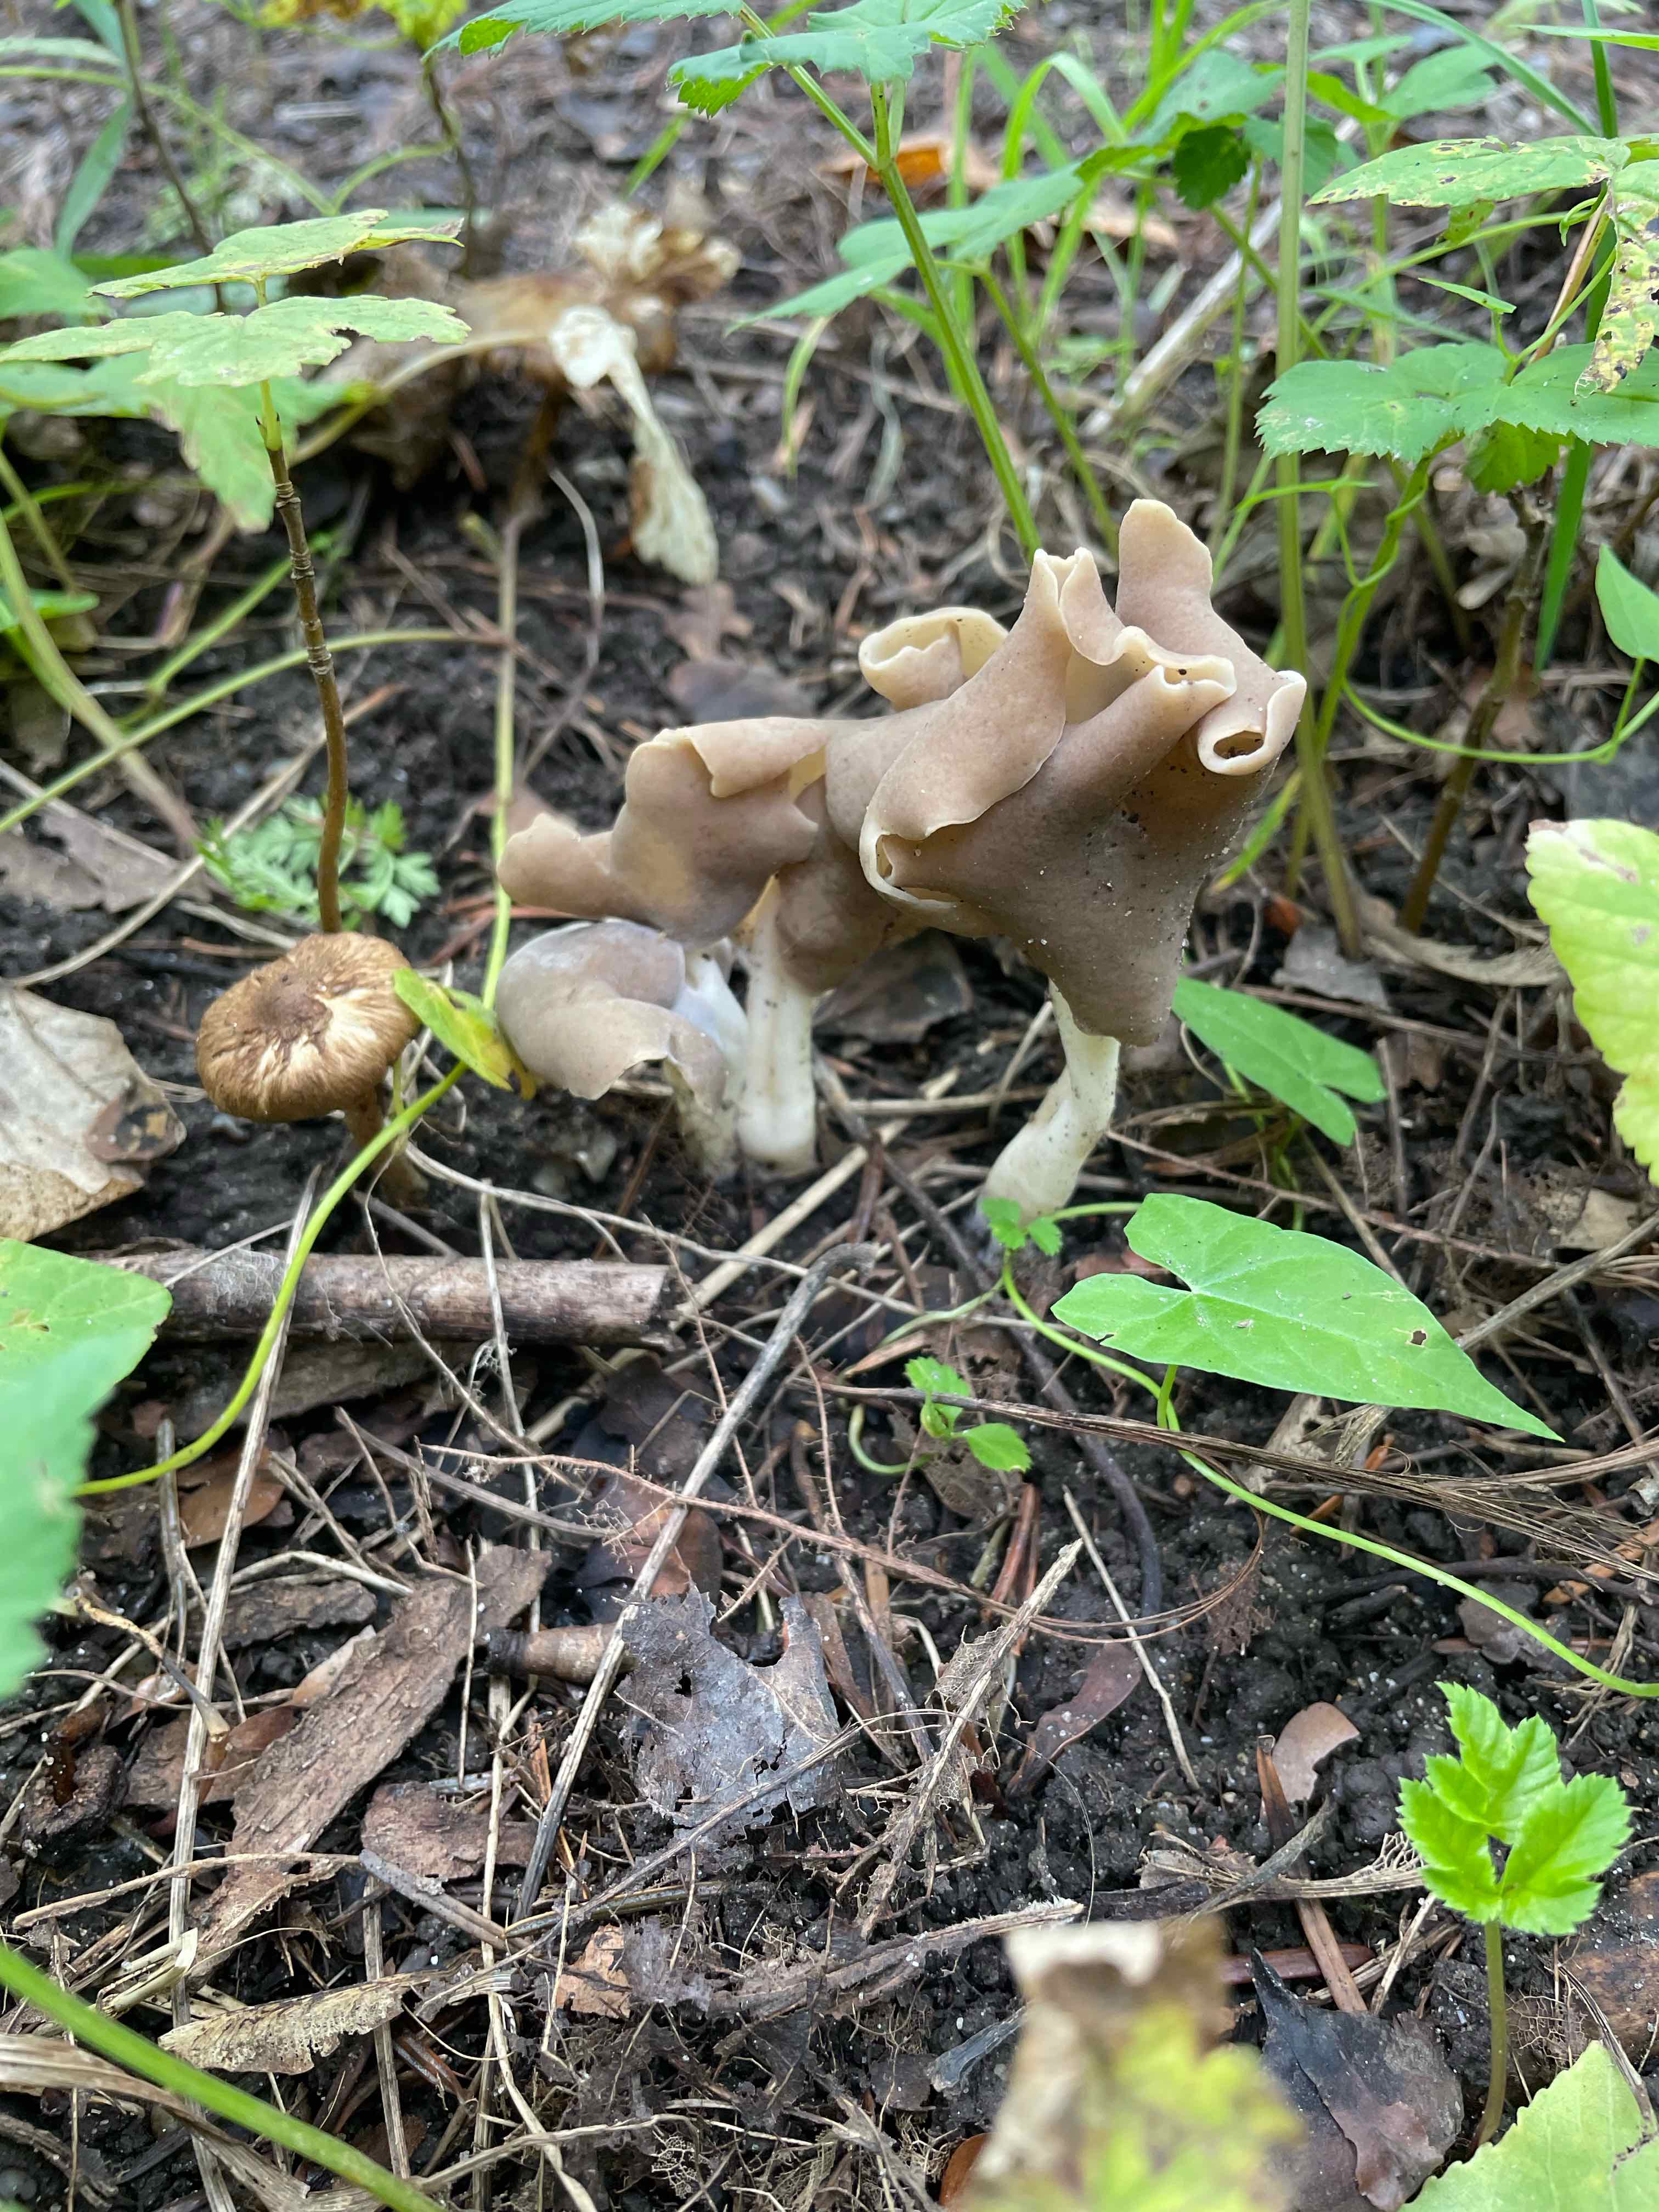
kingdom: Fungi
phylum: Ascomycota
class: Pezizomycetes
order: Pezizales
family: Helvellaceae
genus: Helvella
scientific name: Helvella elastica
